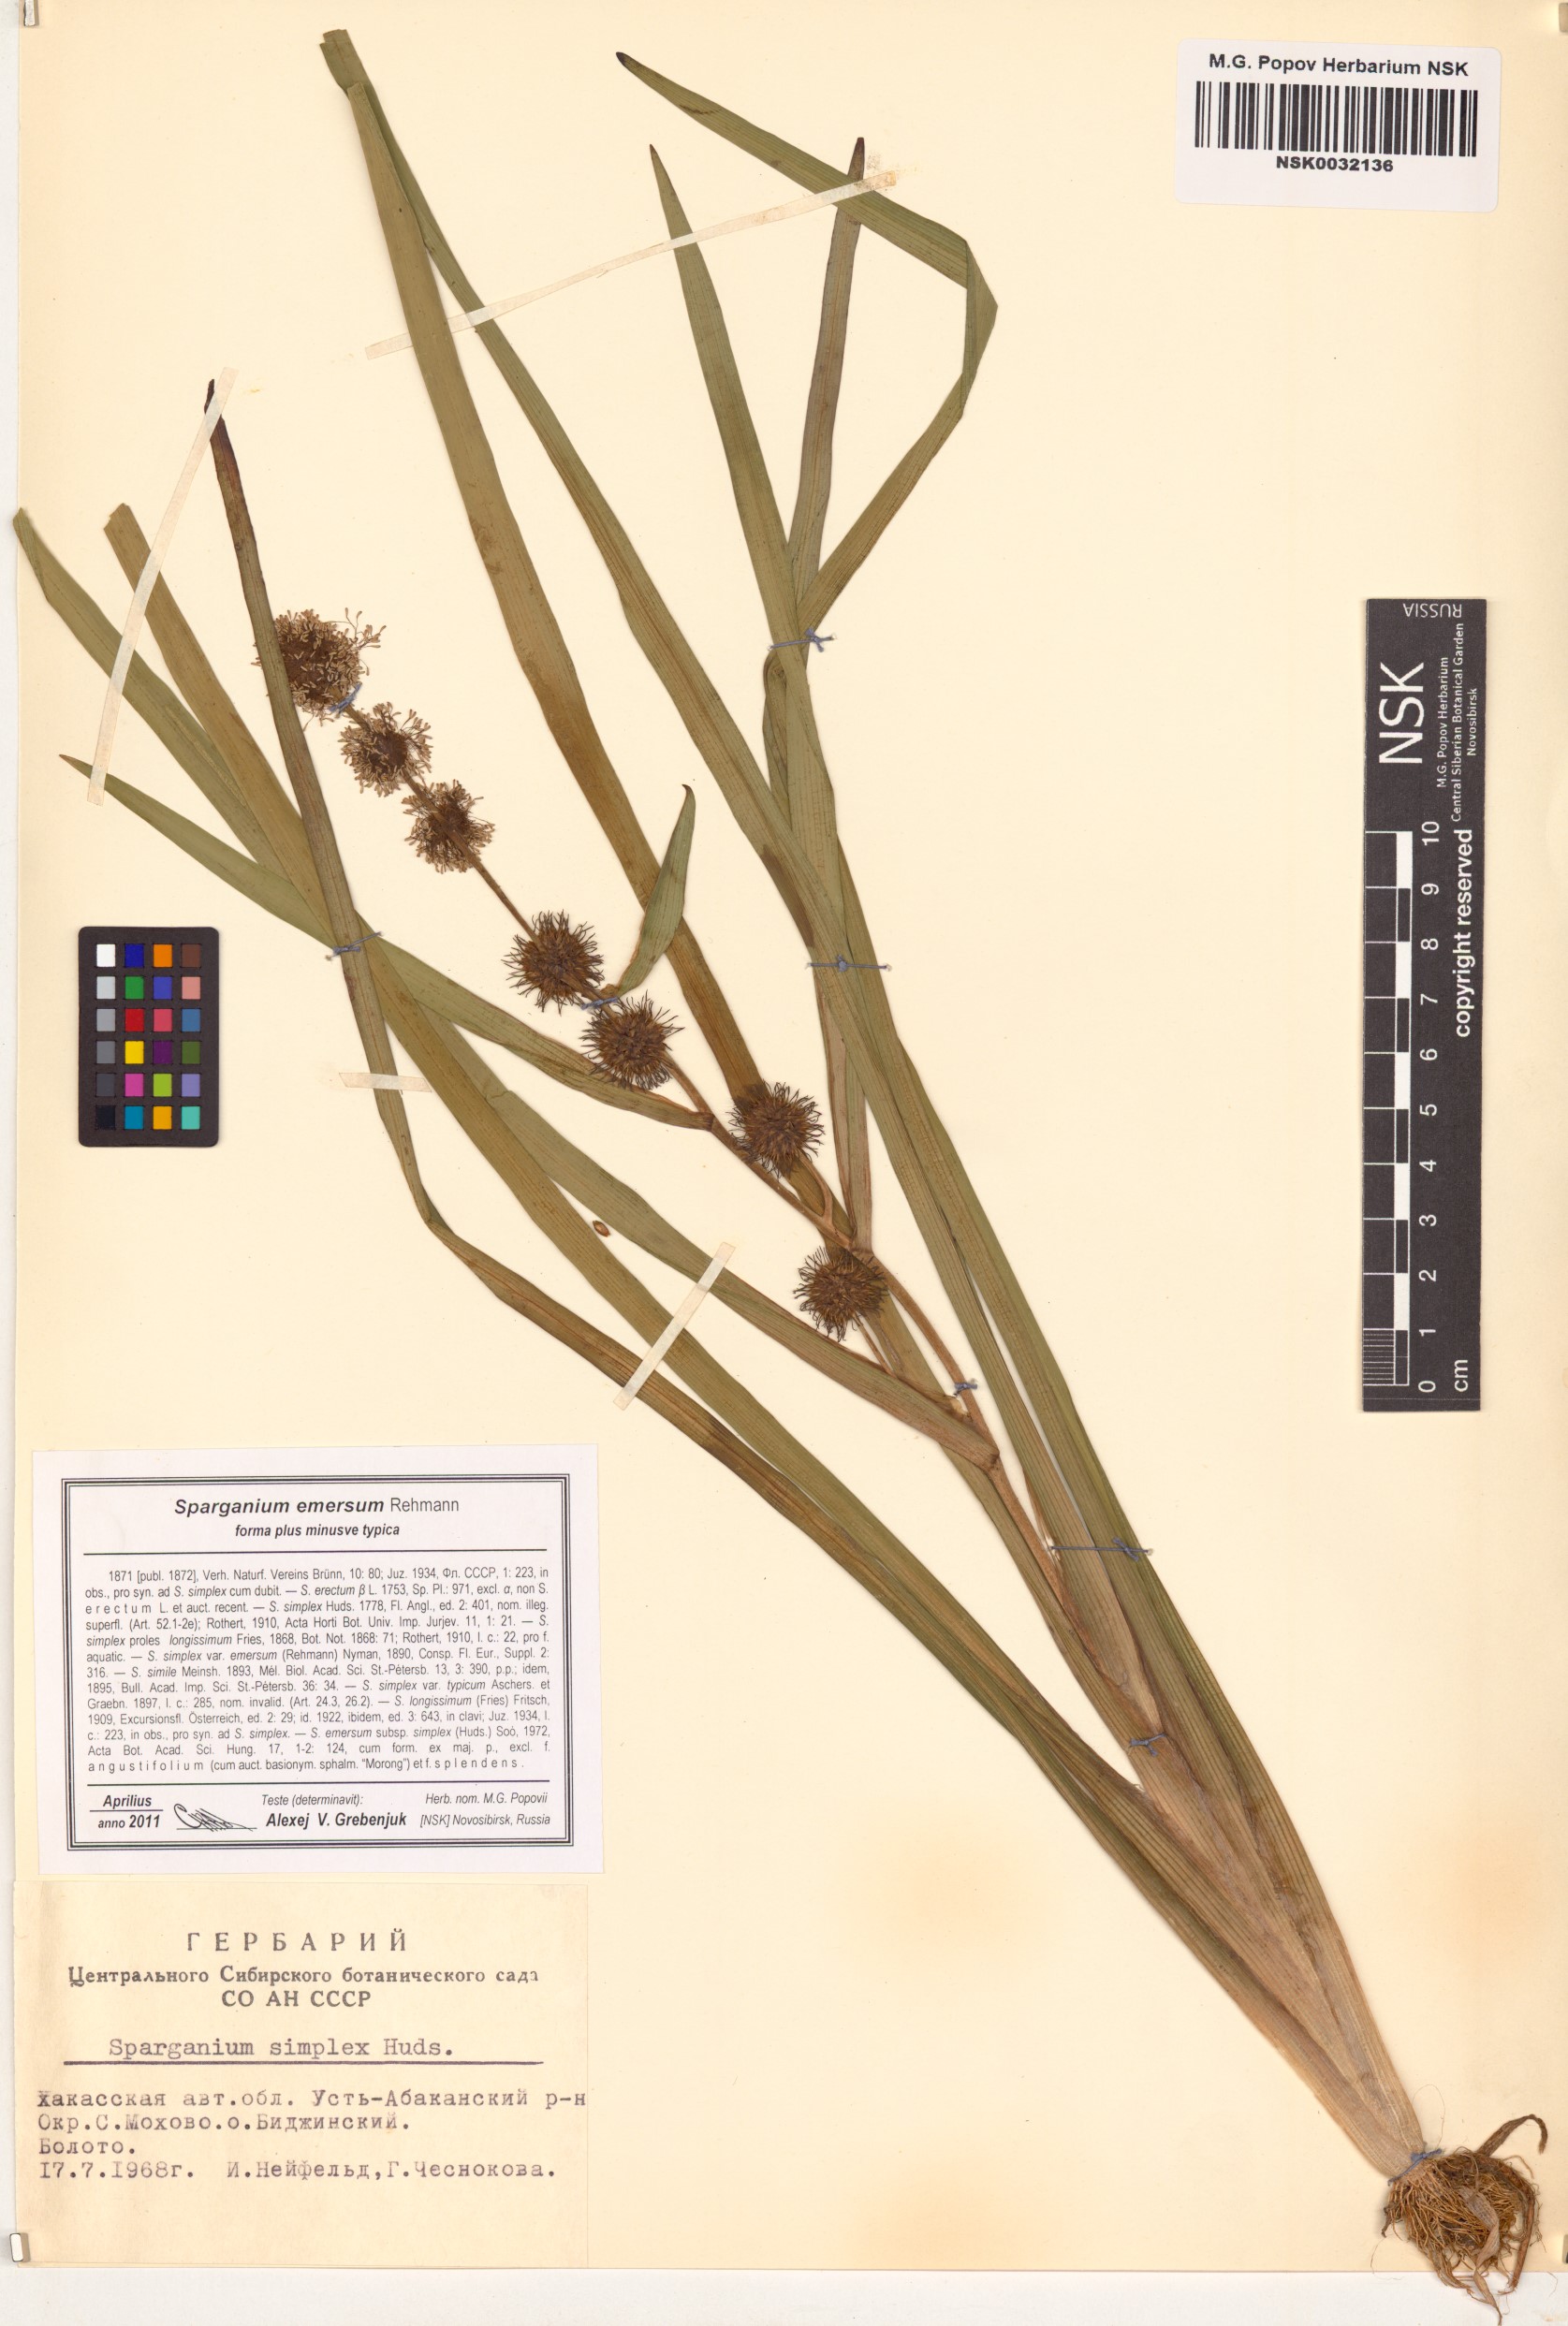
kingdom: Plantae
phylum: Tracheophyta
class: Liliopsida
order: Poales
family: Typhaceae
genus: Sparganium
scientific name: Sparganium emersum
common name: Unbranched bur-reed
